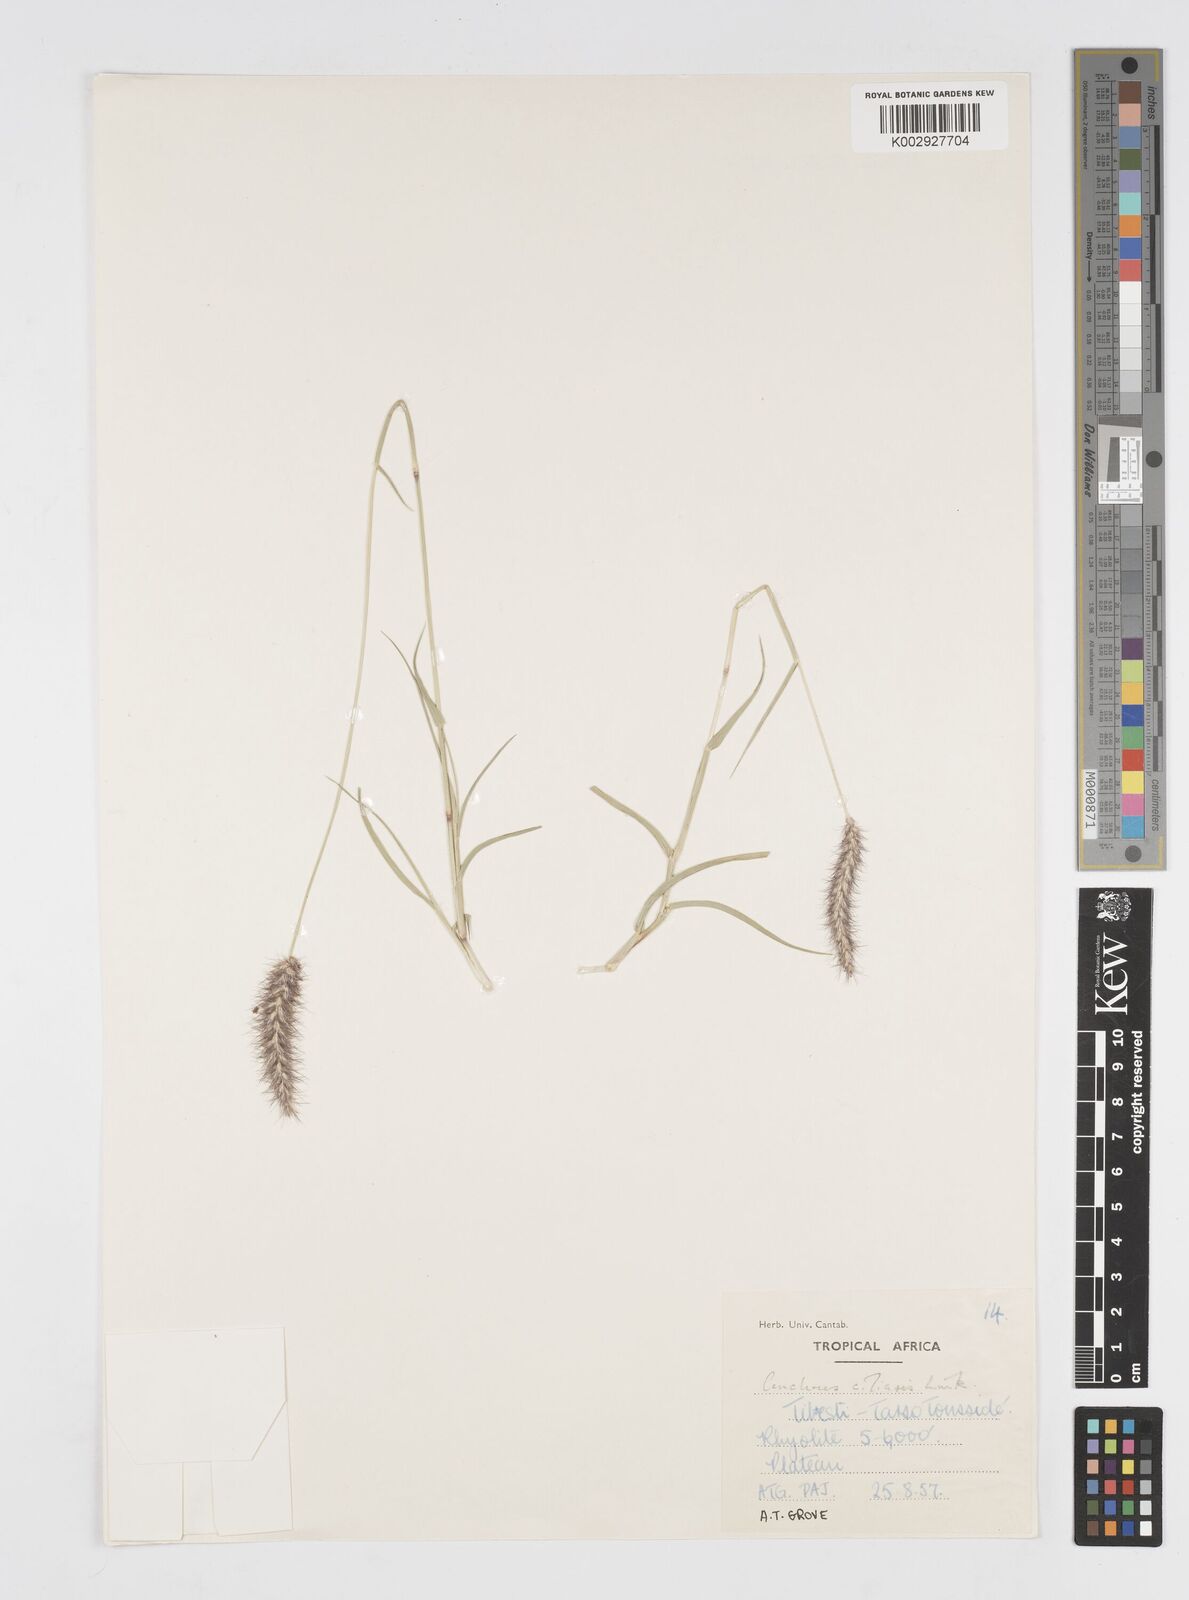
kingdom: Plantae
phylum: Tracheophyta
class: Liliopsida
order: Poales
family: Poaceae
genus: Cenchrus
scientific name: Cenchrus ciliaris
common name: Buffelgrass
